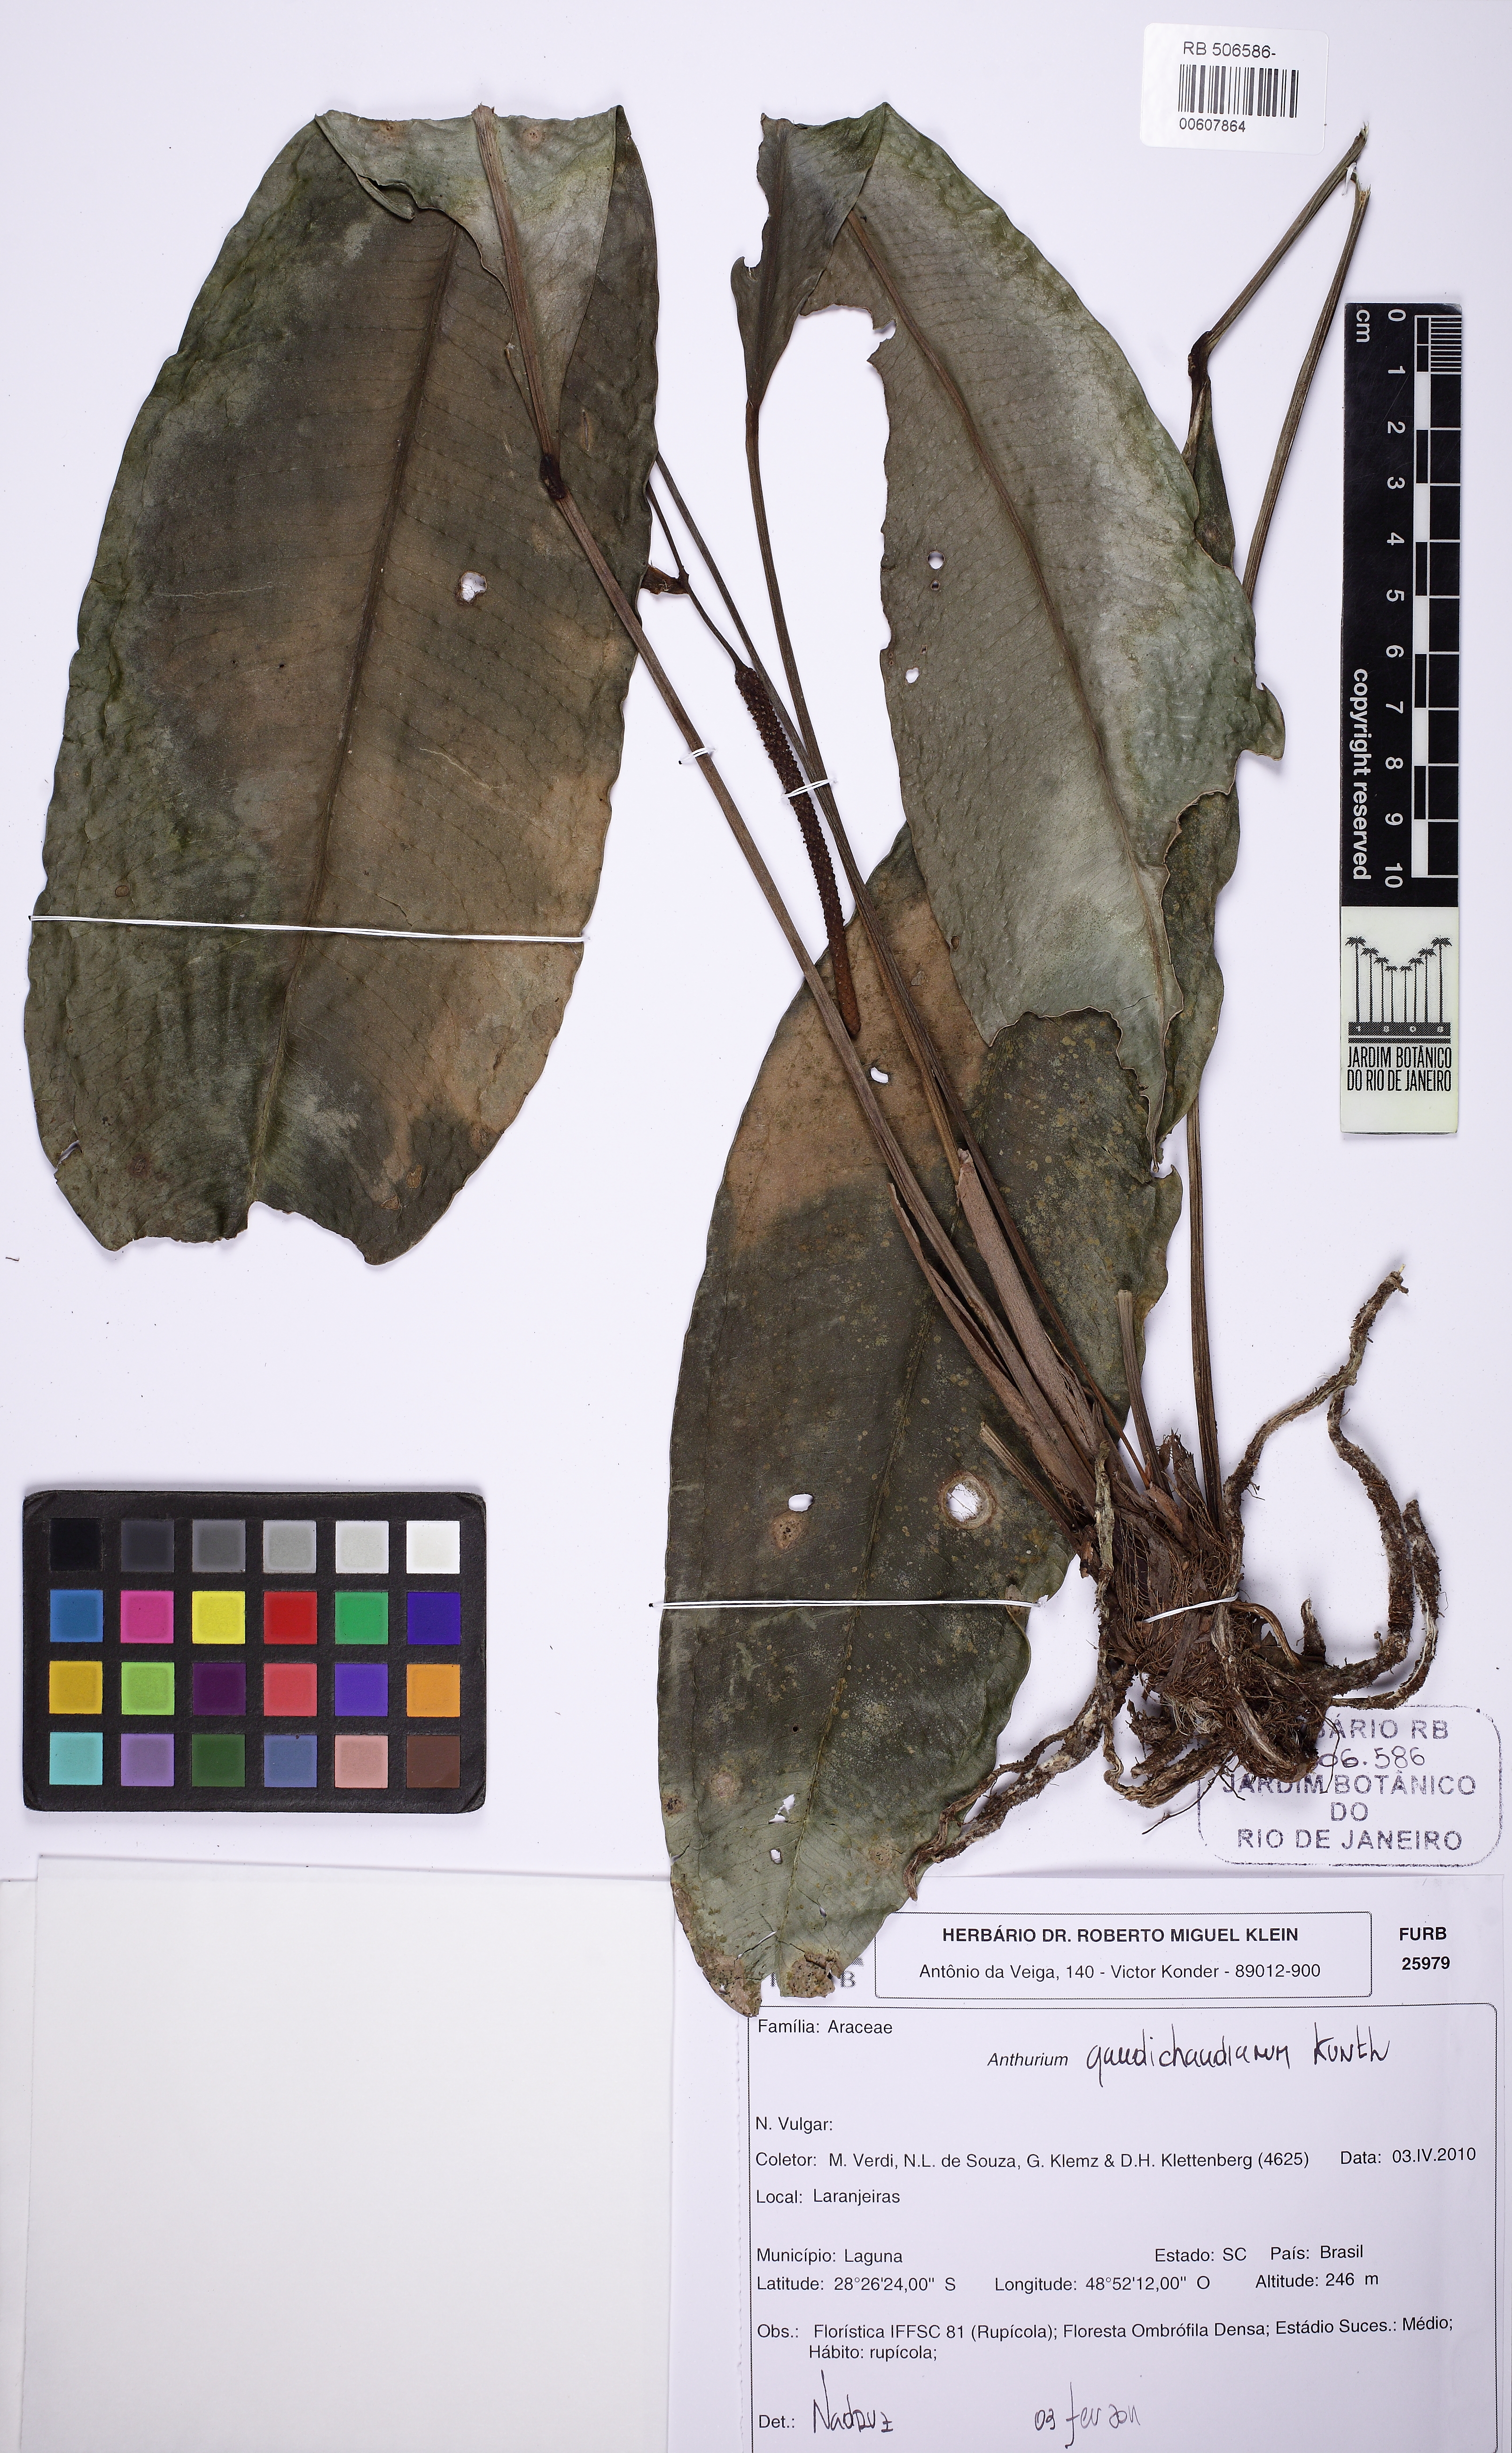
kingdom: Plantae
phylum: Tracheophyta
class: Liliopsida
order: Alismatales
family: Araceae
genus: Anthurium
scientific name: Anthurium gaudichaudianum
